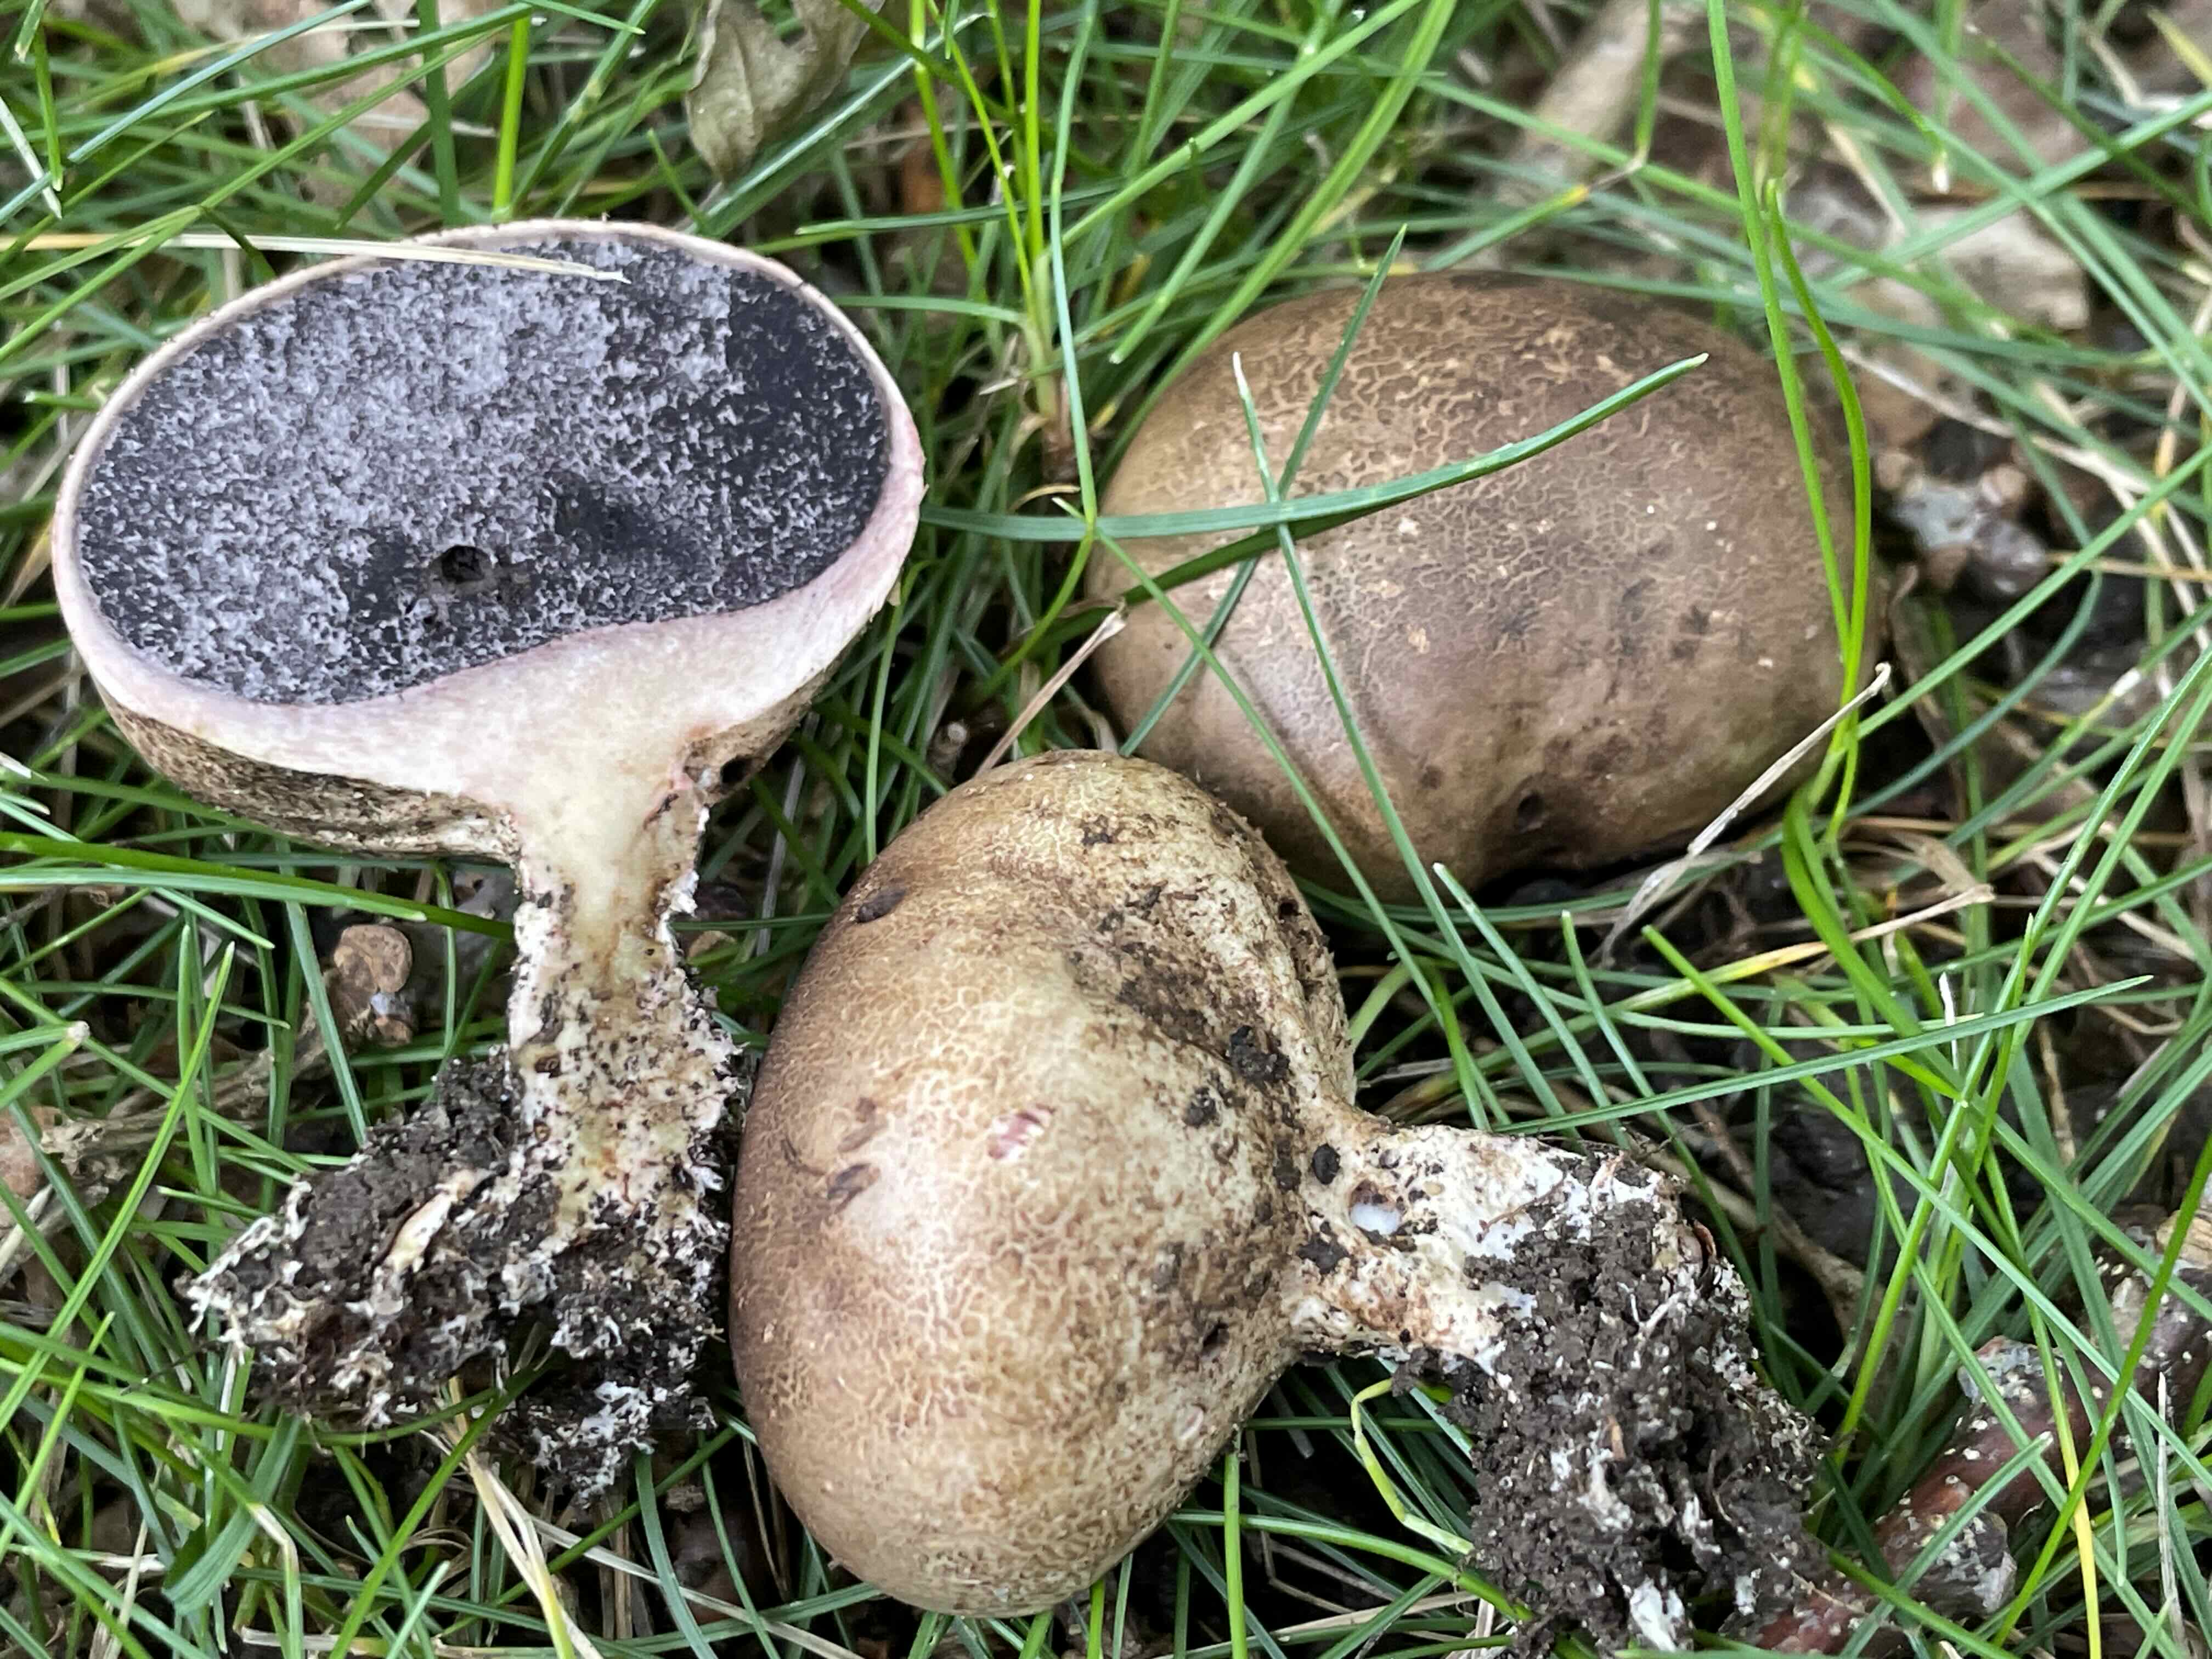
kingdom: Fungi
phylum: Basidiomycota
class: Agaricomycetes
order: Boletales
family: Sclerodermataceae
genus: Scleroderma
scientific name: Scleroderma verrucosum
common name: stilket bruskbold
